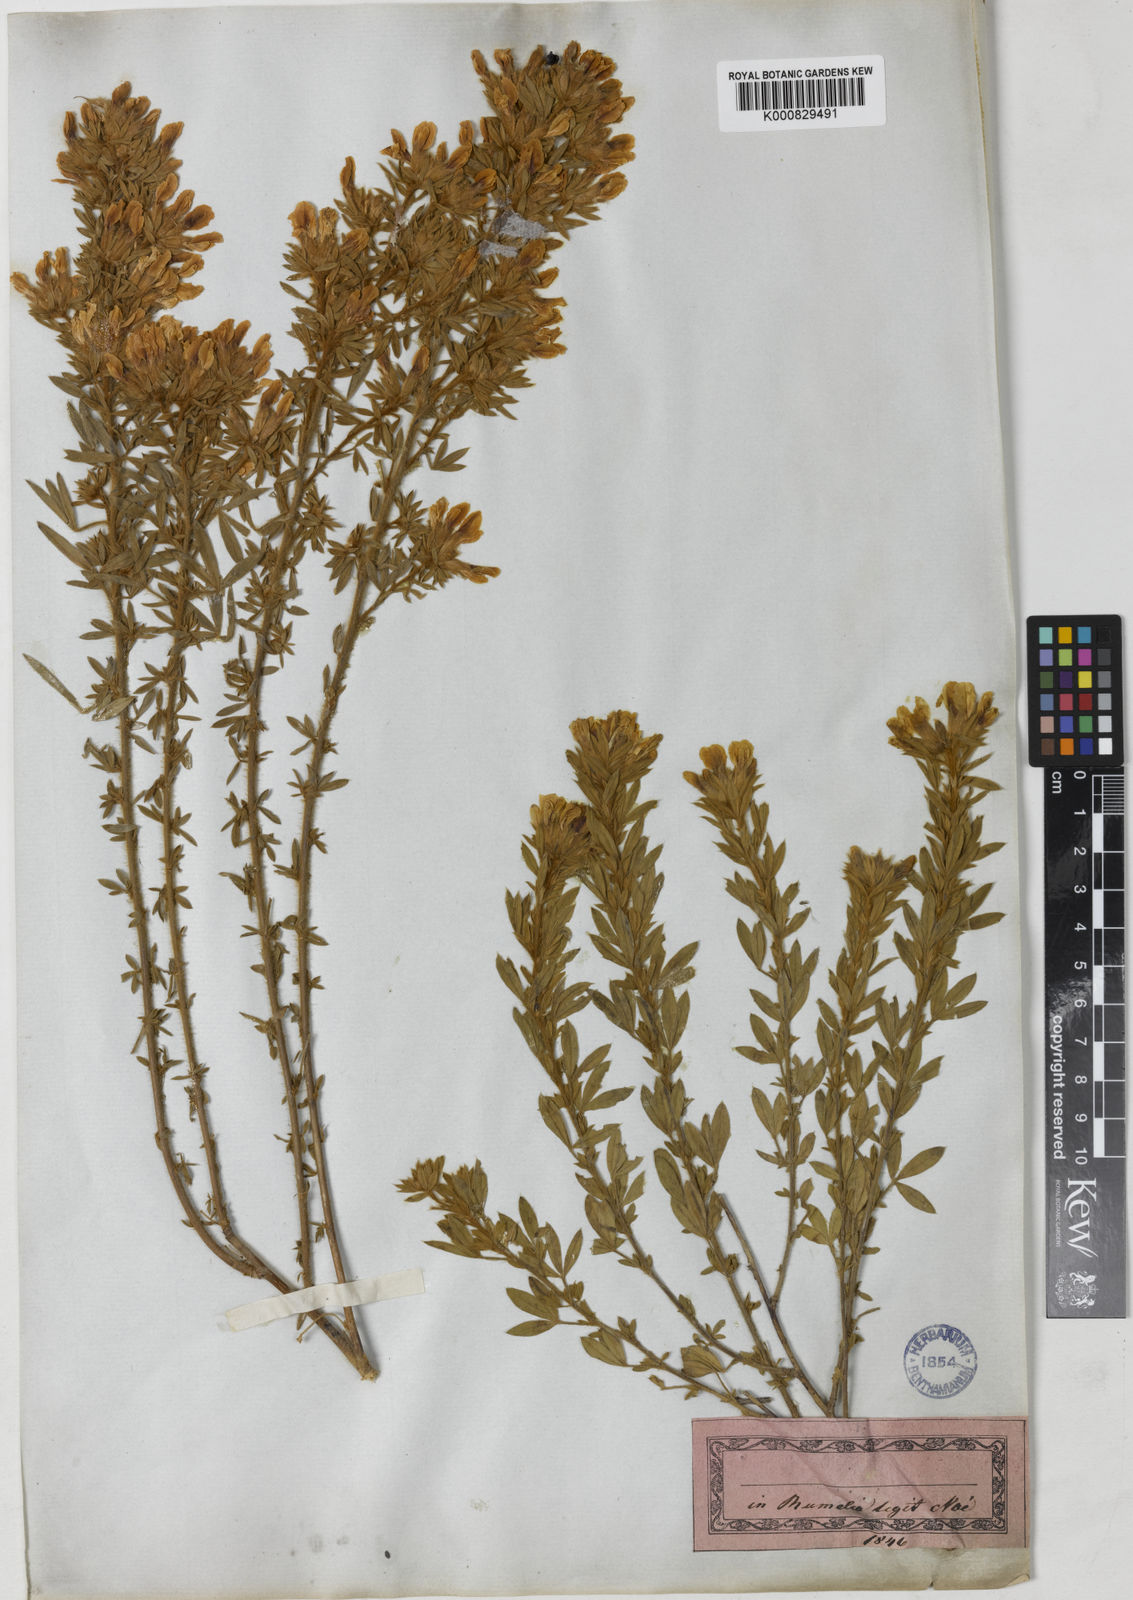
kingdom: Plantae
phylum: Tracheophyta
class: Magnoliopsida
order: Fabales
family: Fabaceae
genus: Cytisus
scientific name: Cytisus
